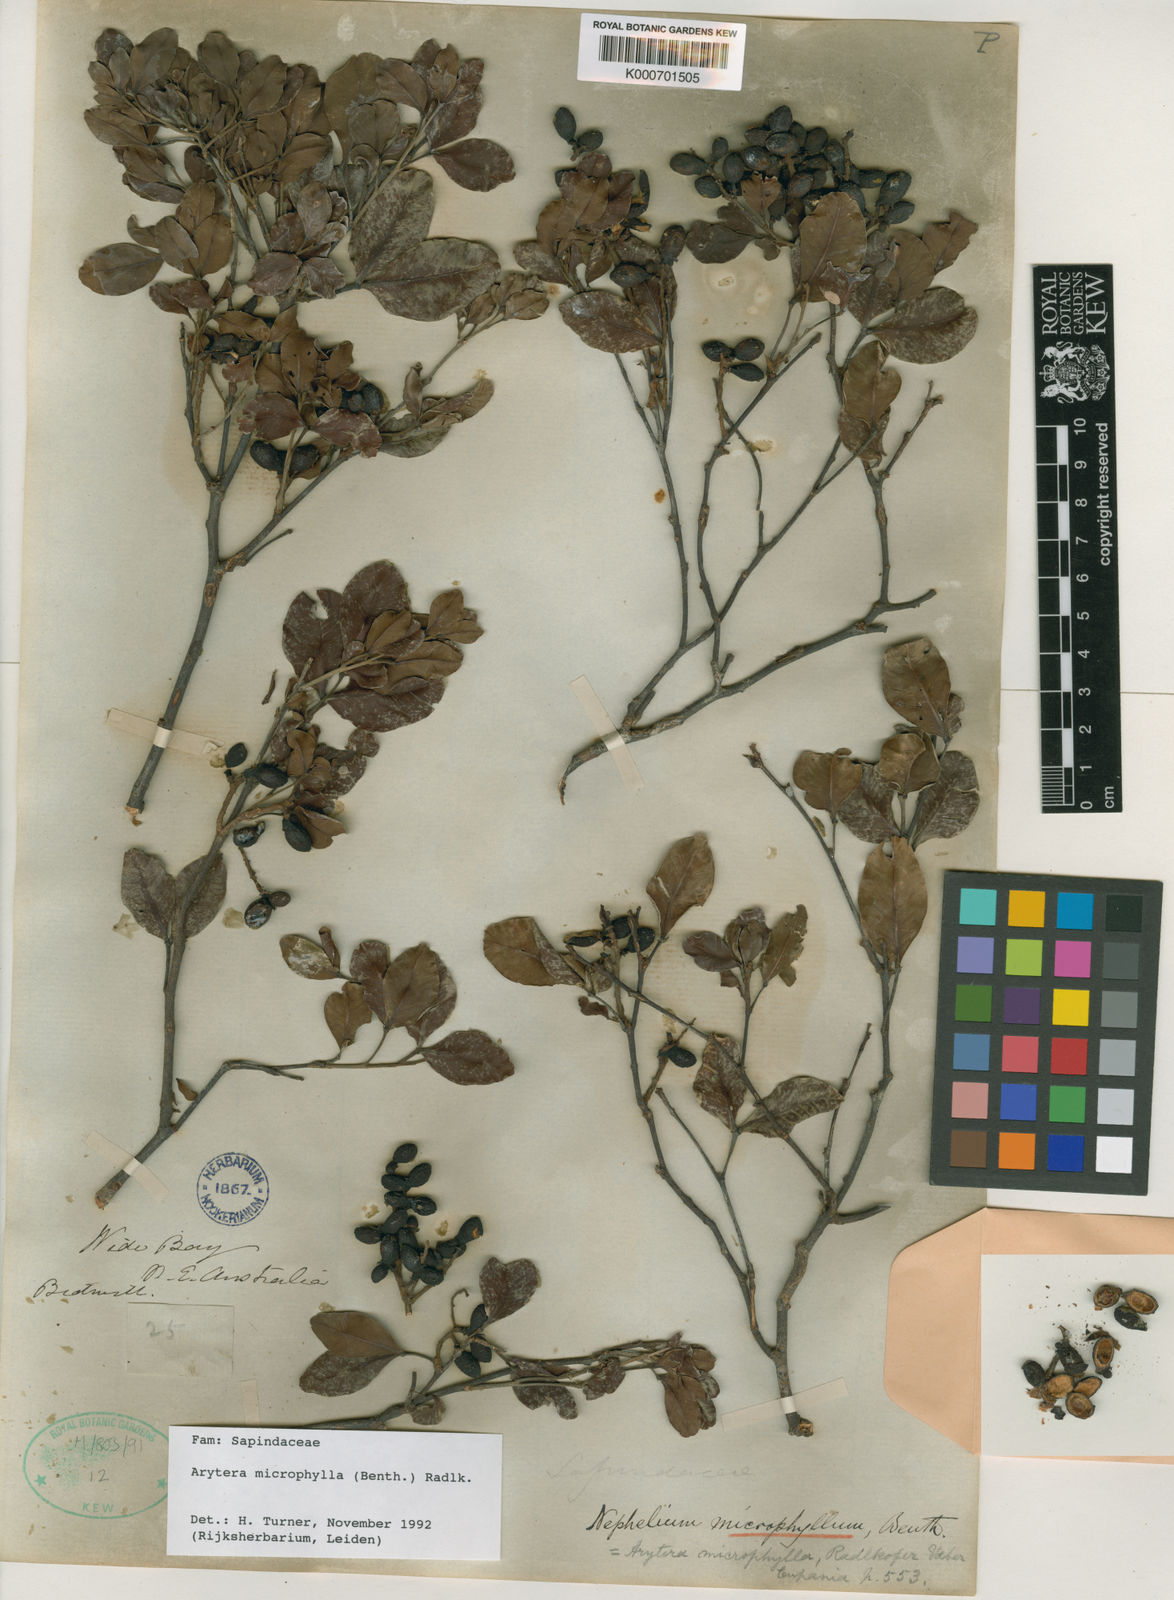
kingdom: Plantae
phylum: Tracheophyta
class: Magnoliopsida
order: Sapindales
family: Sapindaceae
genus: Arytera
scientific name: Arytera microphylla
